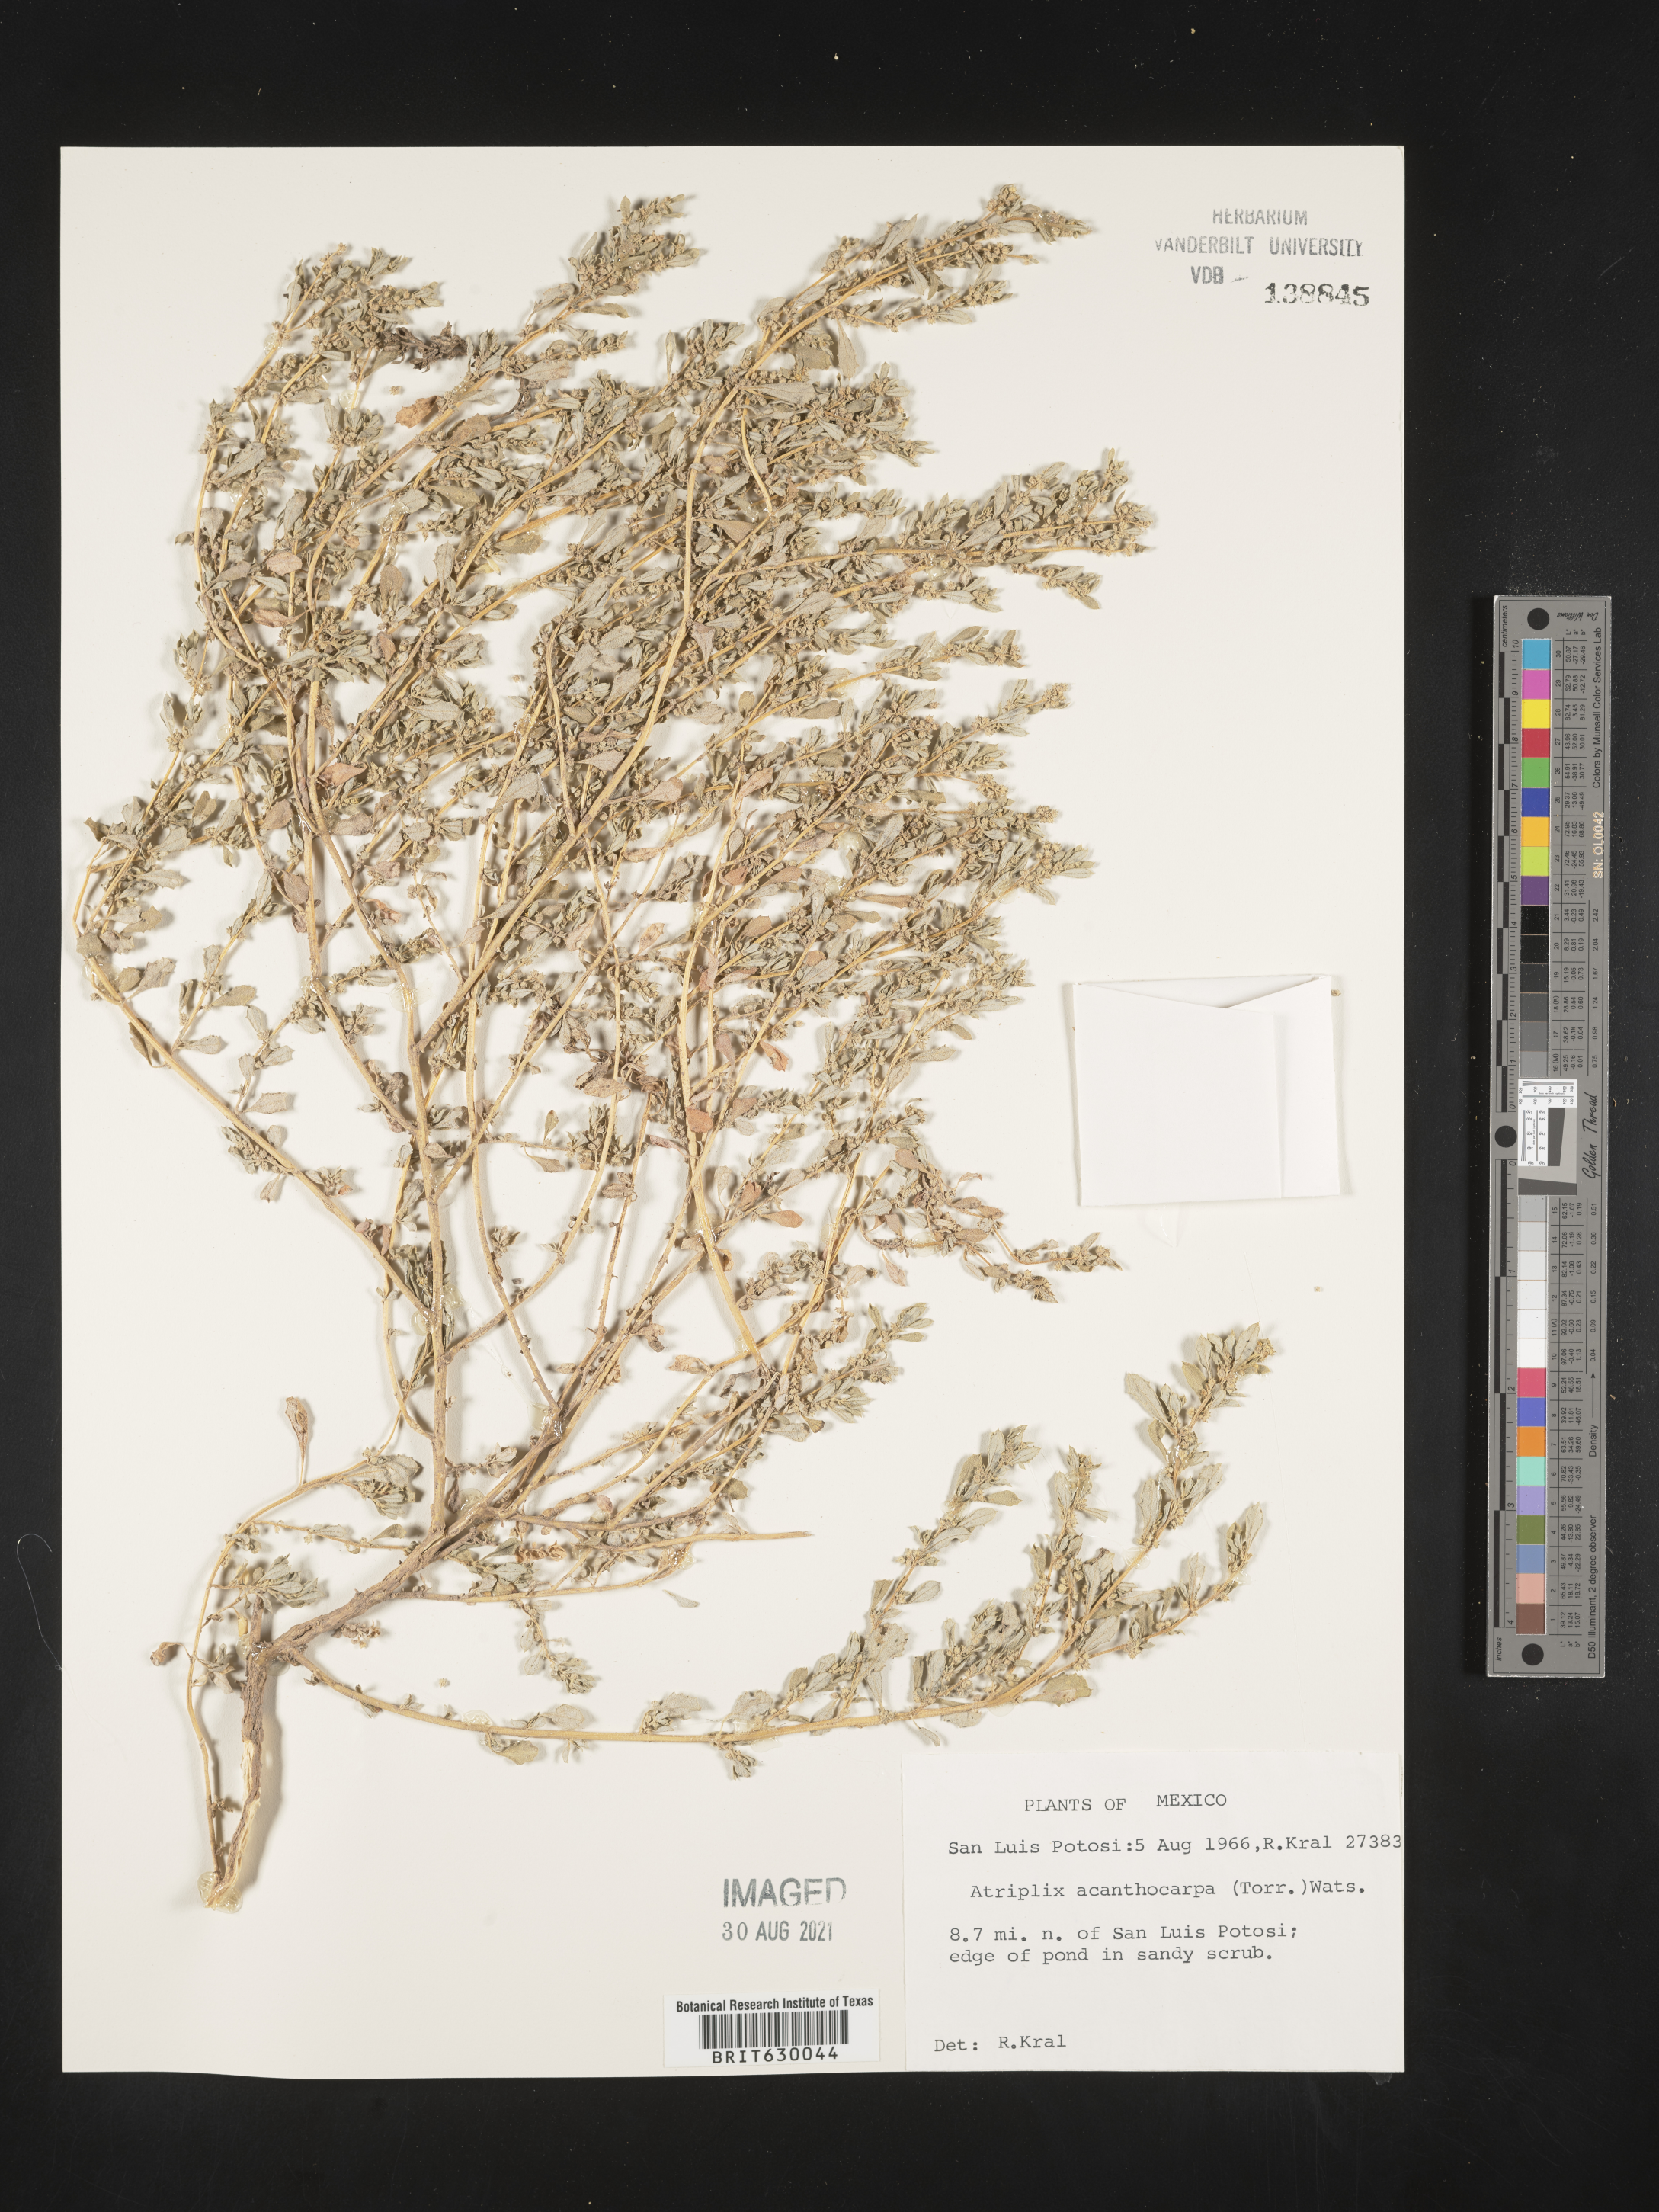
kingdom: Plantae
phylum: Tracheophyta
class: Magnoliopsida
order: Caryophyllales
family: Amaranthaceae
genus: Atriplex
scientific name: Atriplex
